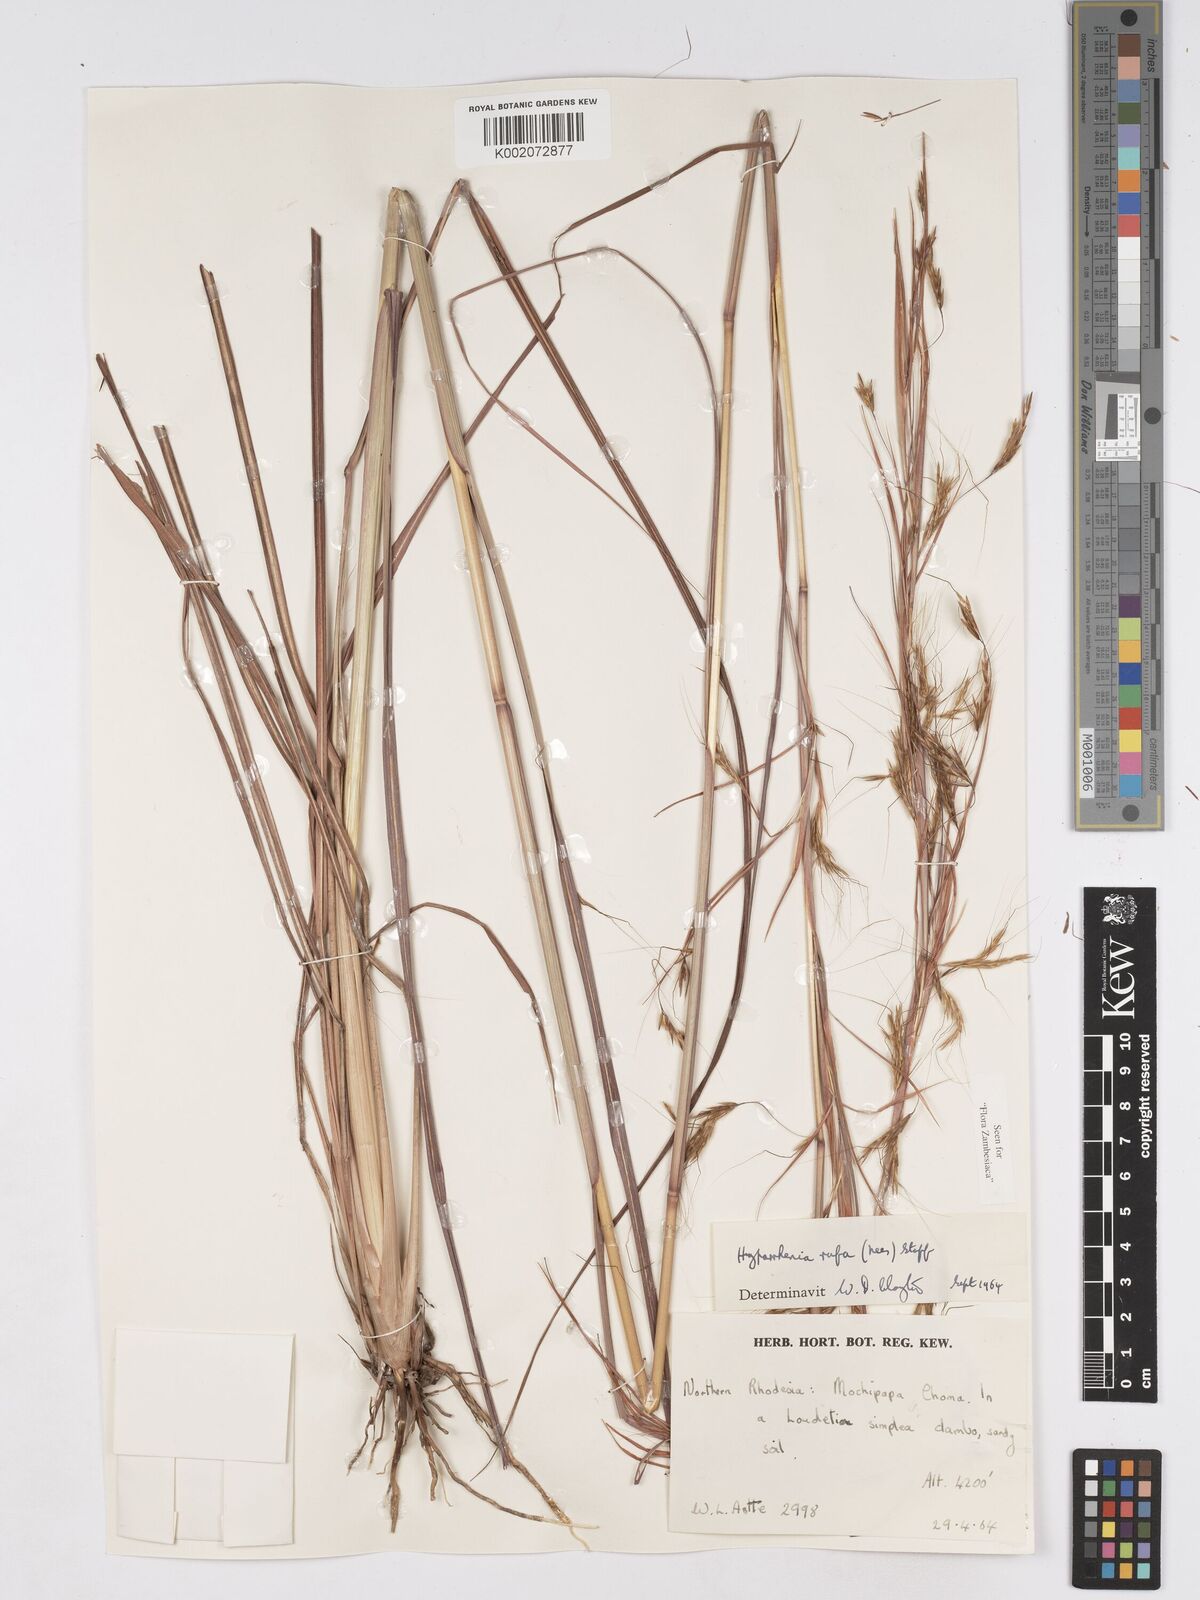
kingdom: Plantae
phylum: Tracheophyta
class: Liliopsida
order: Poales
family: Poaceae
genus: Hyparrhenia
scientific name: Hyparrhenia rufa
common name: Jaraguagrass
